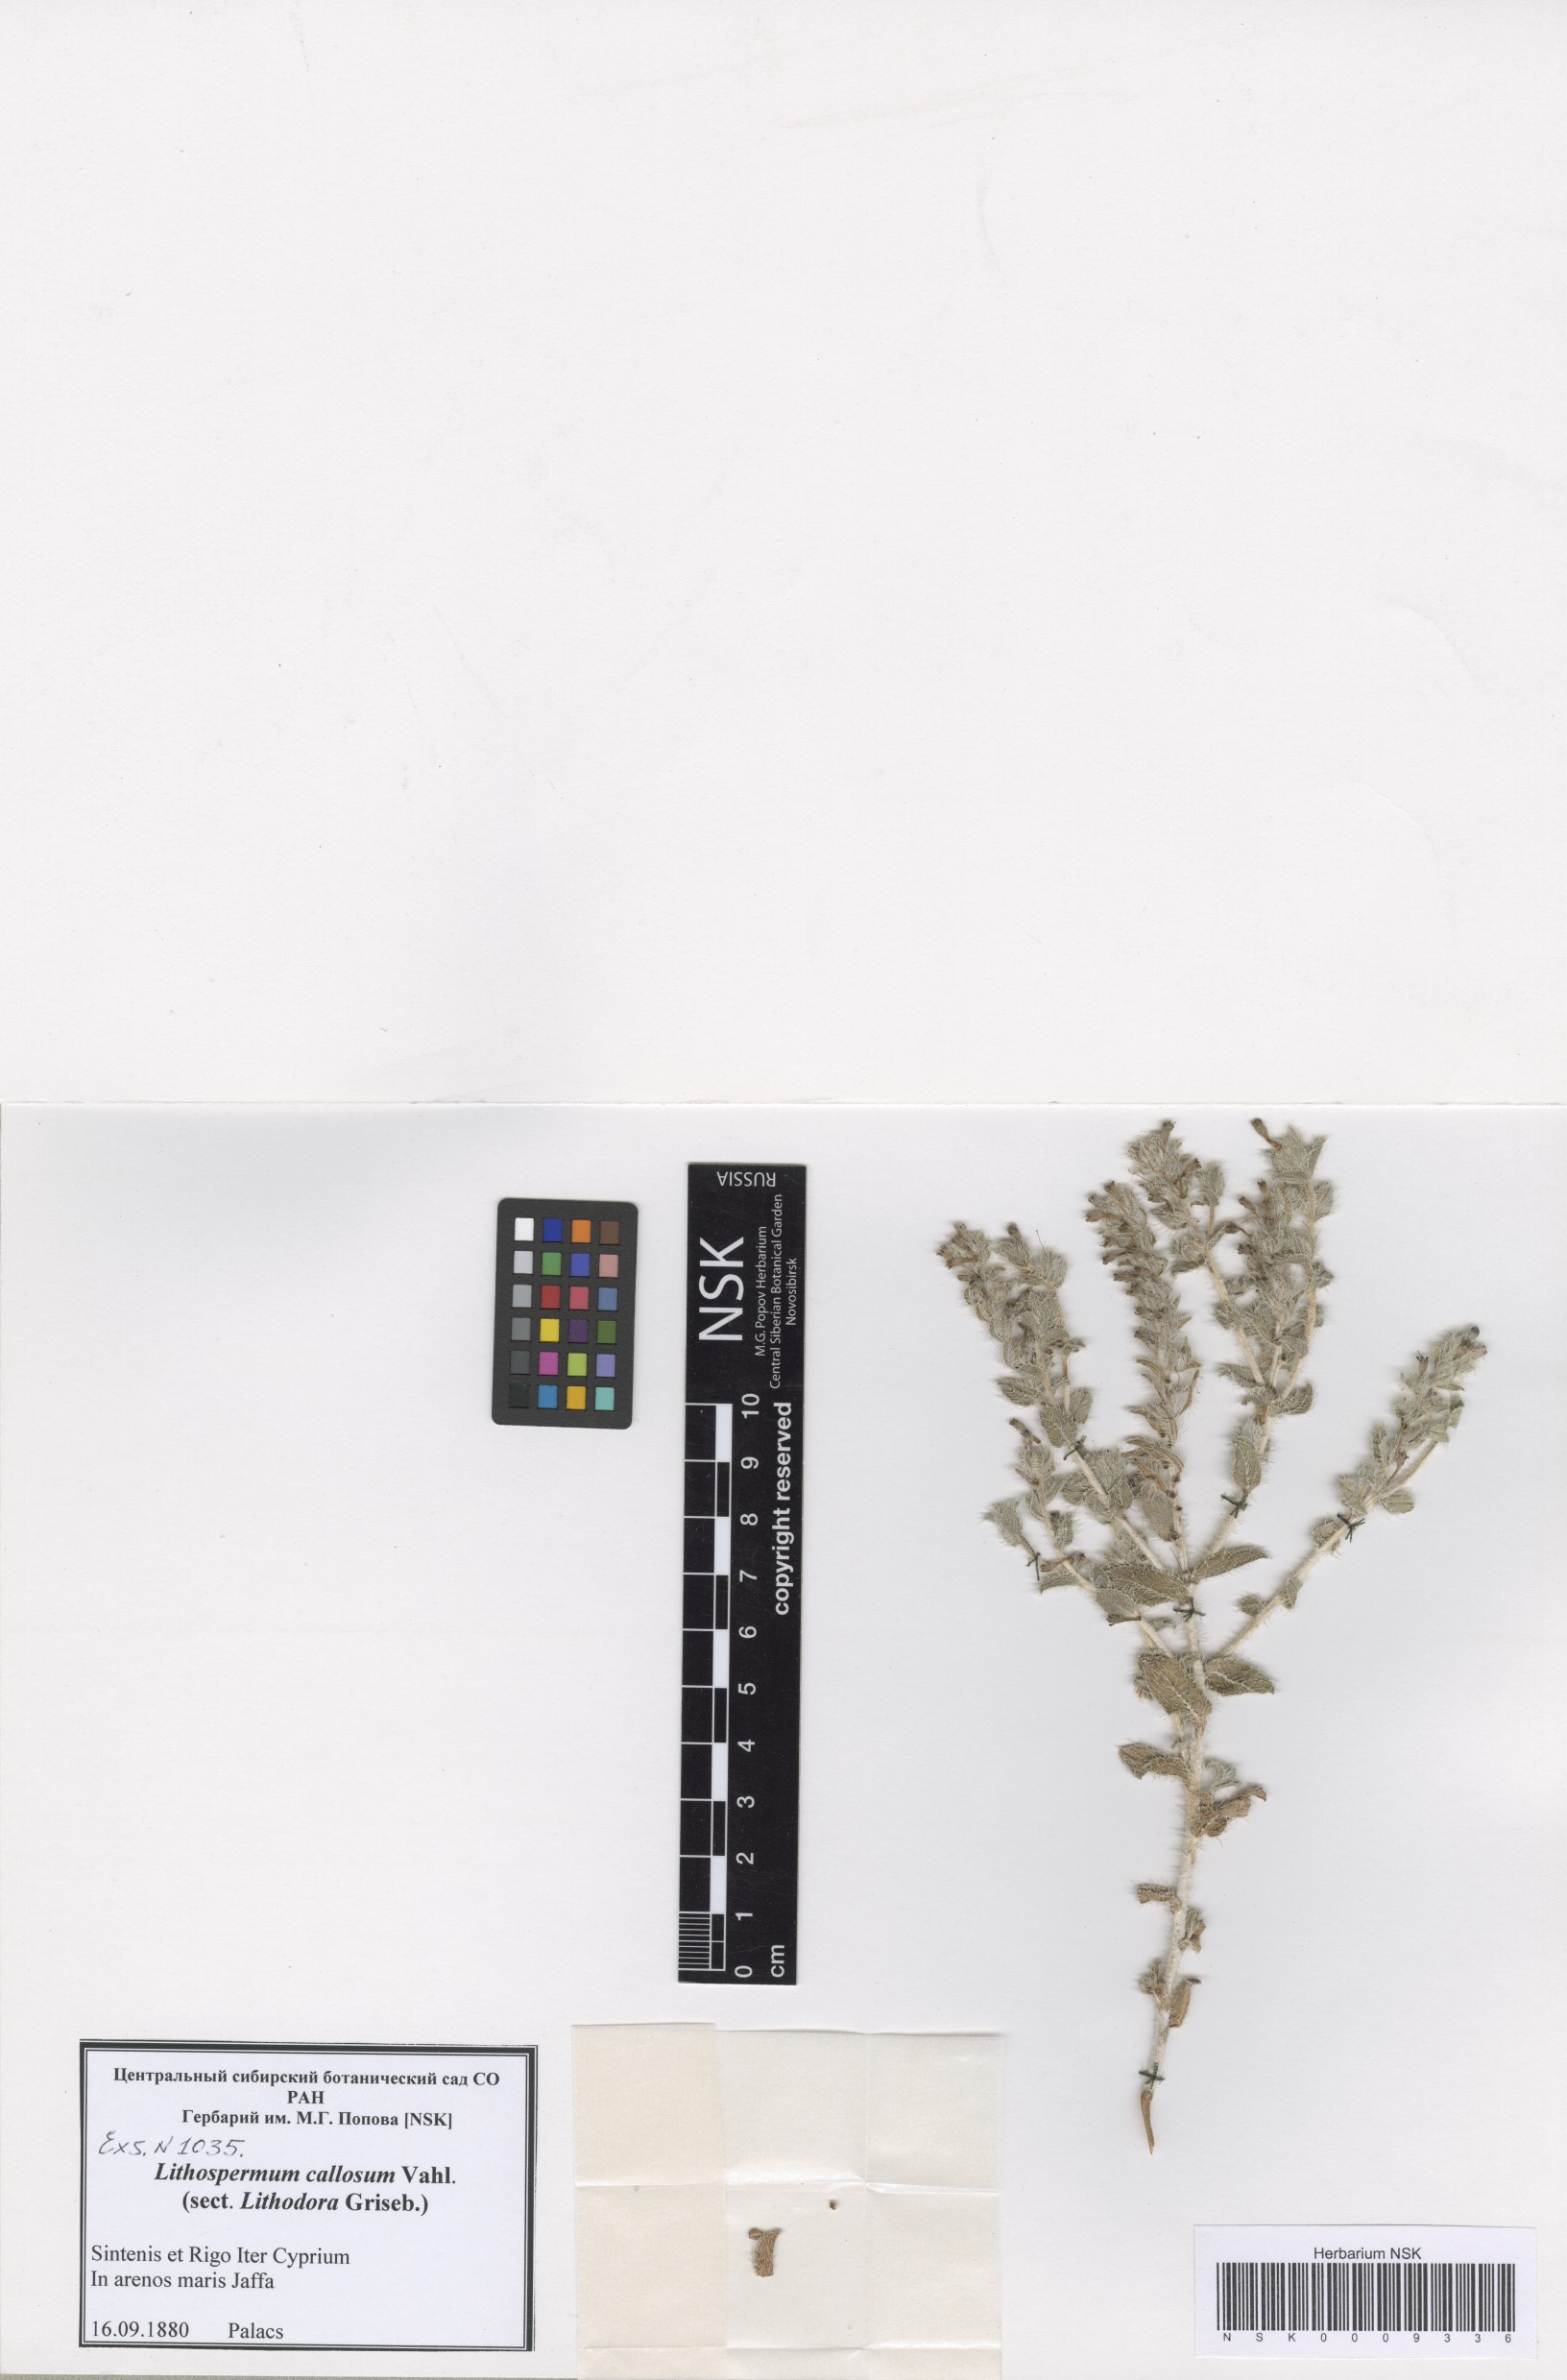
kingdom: Plantae
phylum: Tracheophyta
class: Magnoliopsida
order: Boraginales
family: Boraginaceae
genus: Moltkiopsis
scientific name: Moltkiopsis ciliata
